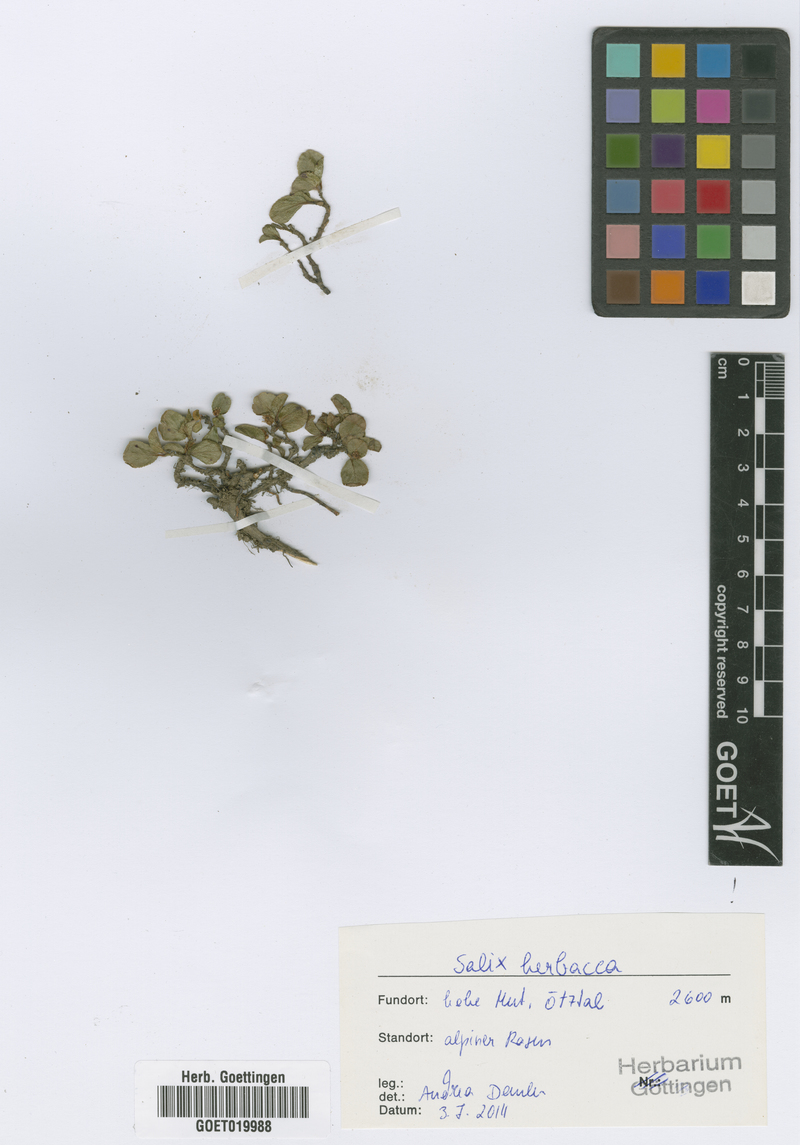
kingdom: Plantae
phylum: Tracheophyta
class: Magnoliopsida
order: Malpighiales
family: Salicaceae
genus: Salix
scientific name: Salix herbacea
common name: Dwarf willow
